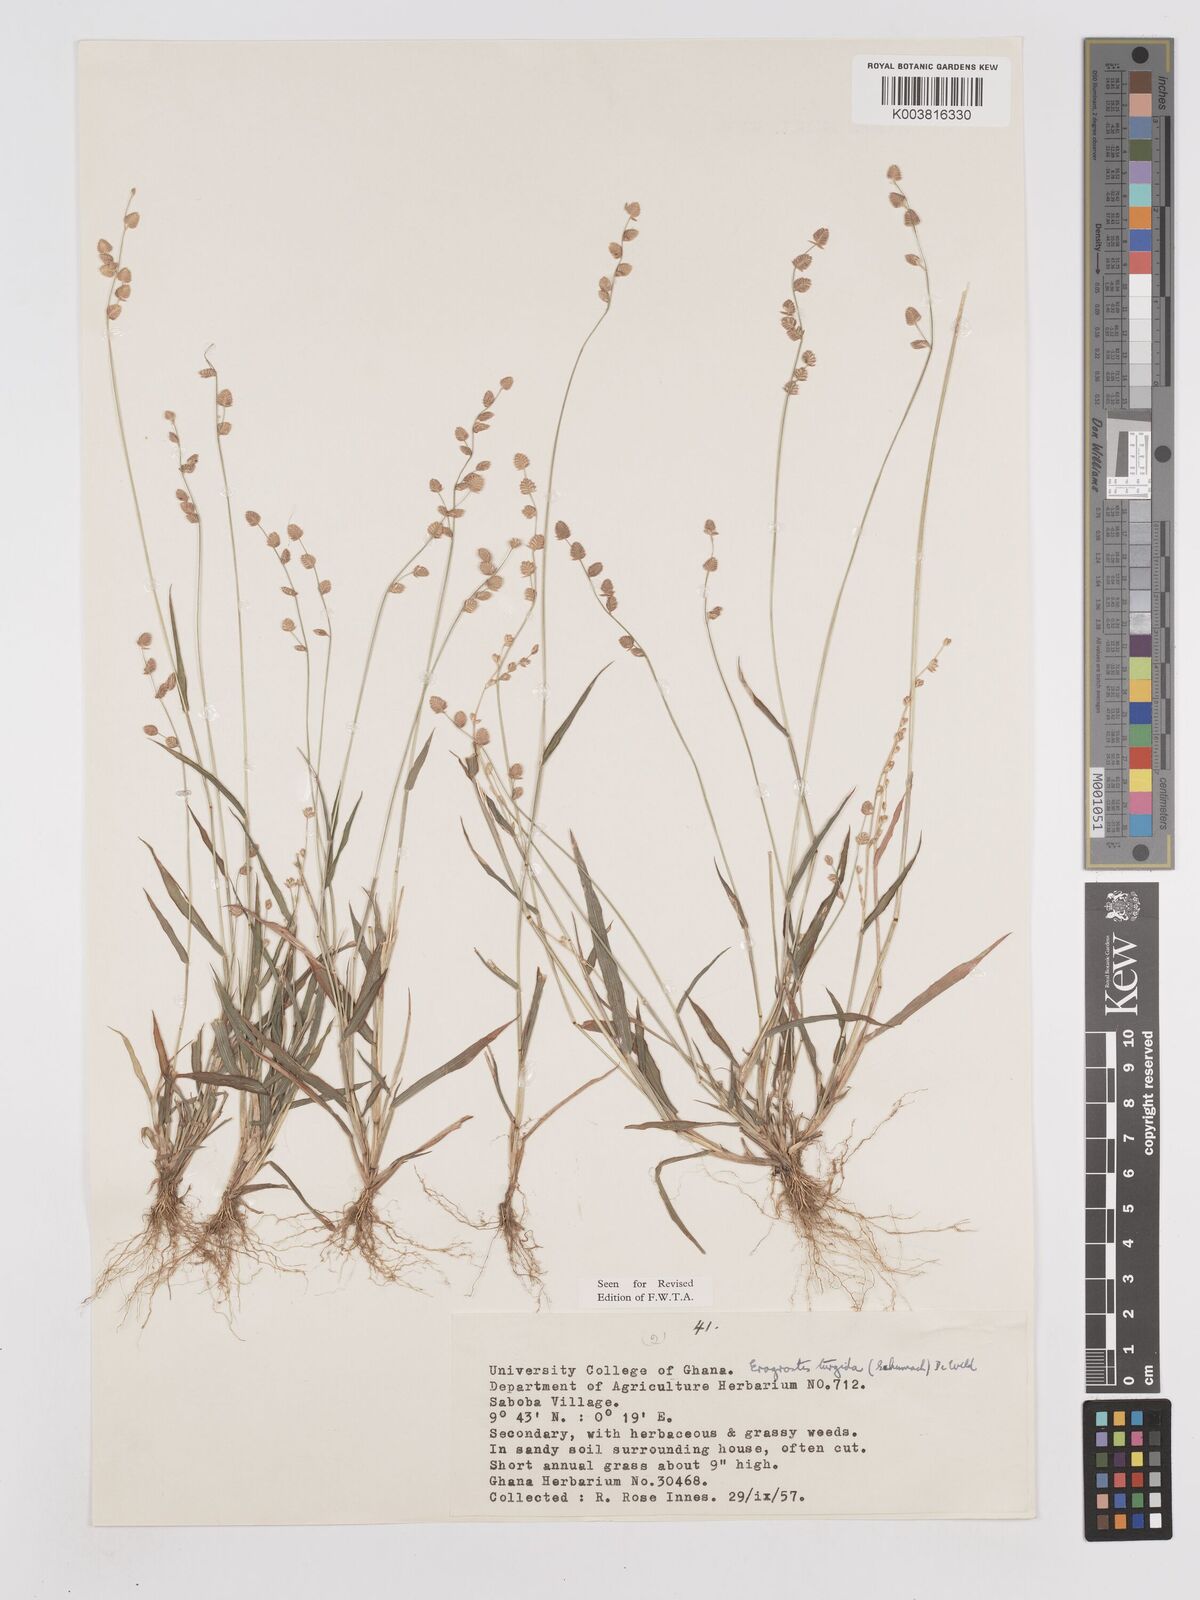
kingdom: Plantae
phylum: Tracheophyta
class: Liliopsida
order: Poales
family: Poaceae
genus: Eragrostis
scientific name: Eragrostis turgida
